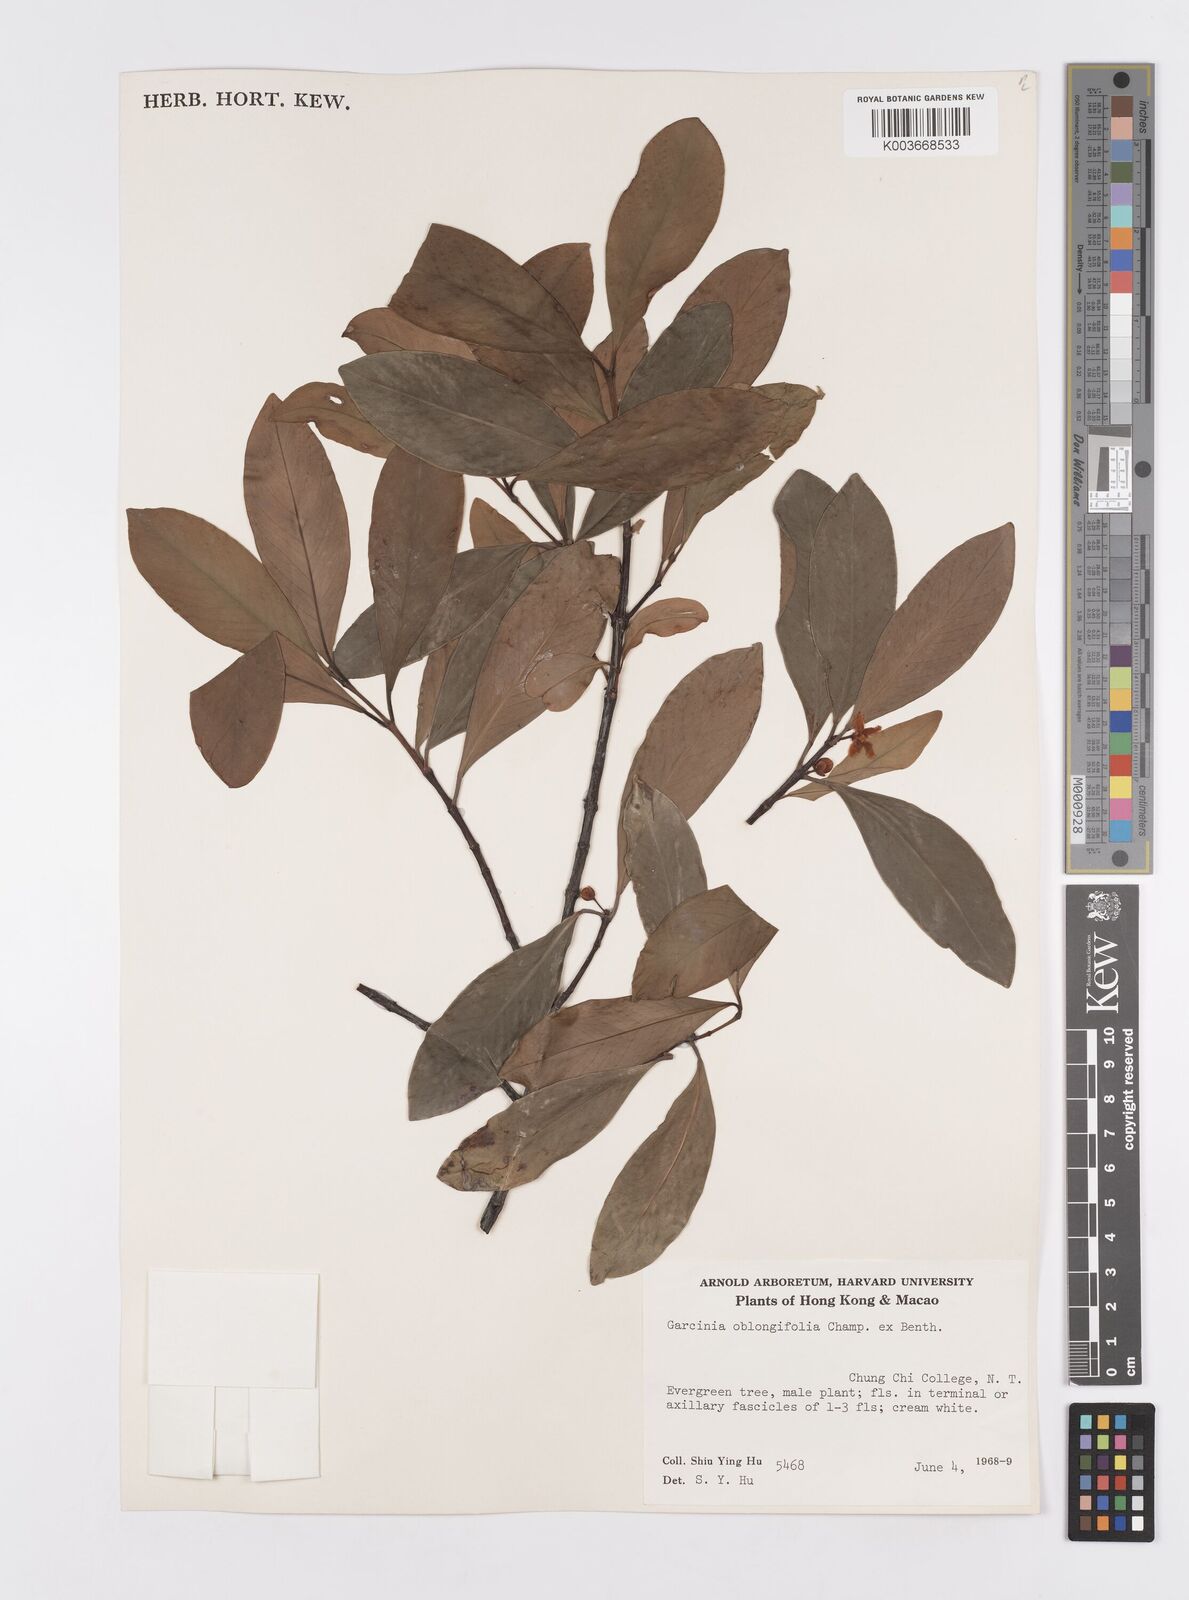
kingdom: Plantae
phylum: Tracheophyta
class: Magnoliopsida
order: Malpighiales
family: Clusiaceae
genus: Garcinia
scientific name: Garcinia oblongifolia
